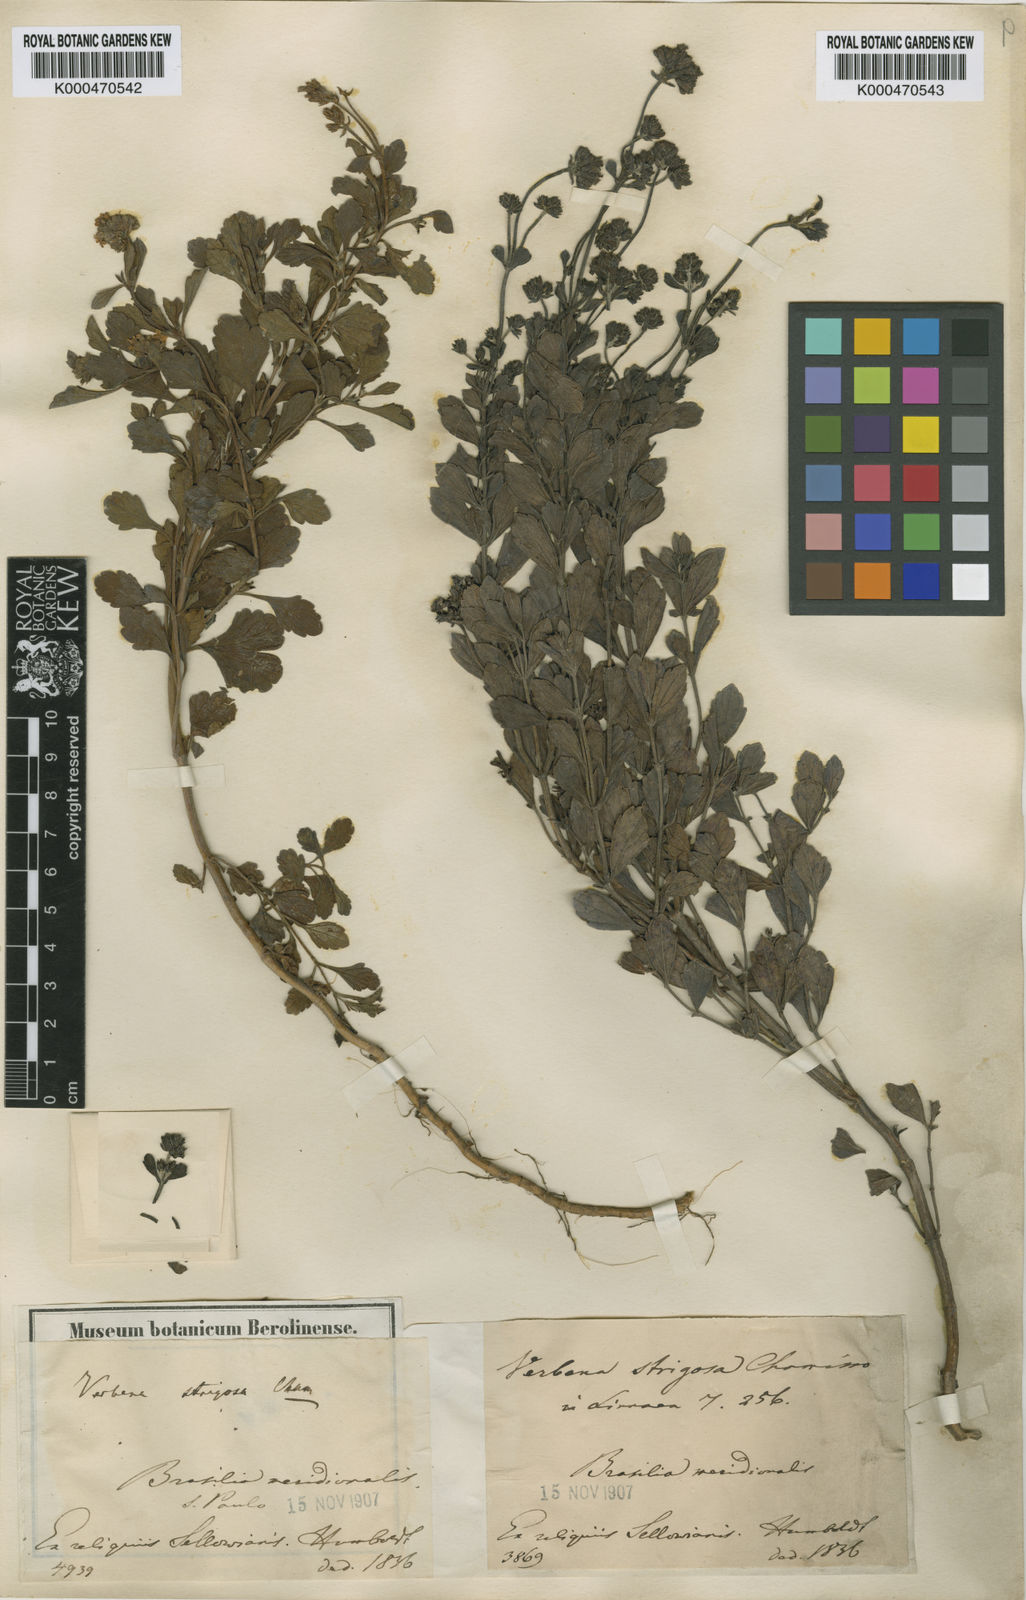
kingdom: Plantae
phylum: Tracheophyta
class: Magnoliopsida
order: Lamiales
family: Verbenaceae
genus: Verbena
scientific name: Verbena strigosa
